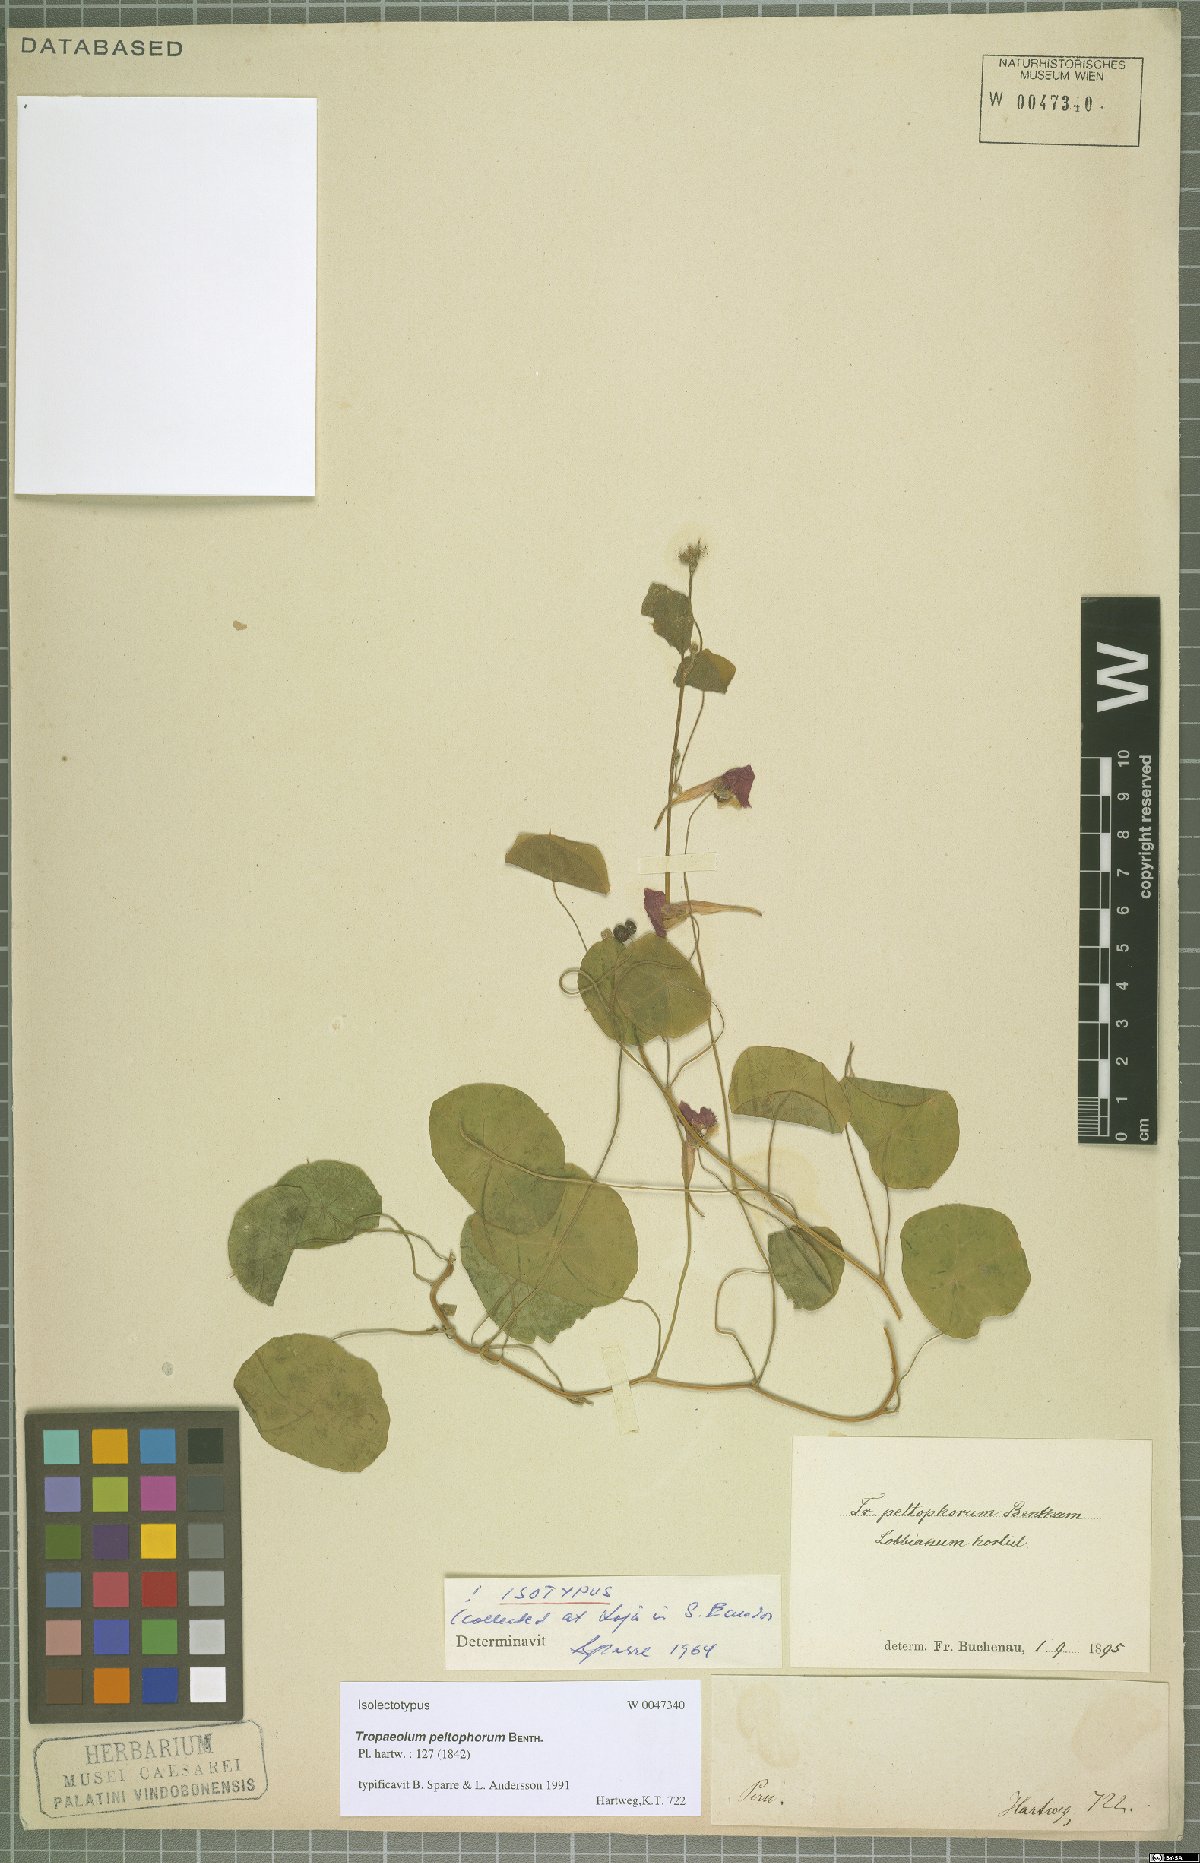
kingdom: Plantae
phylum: Tracheophyta
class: Magnoliopsida
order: Brassicales
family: Tropaeolaceae
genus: Tropaeolum
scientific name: Tropaeolum peltophorum
